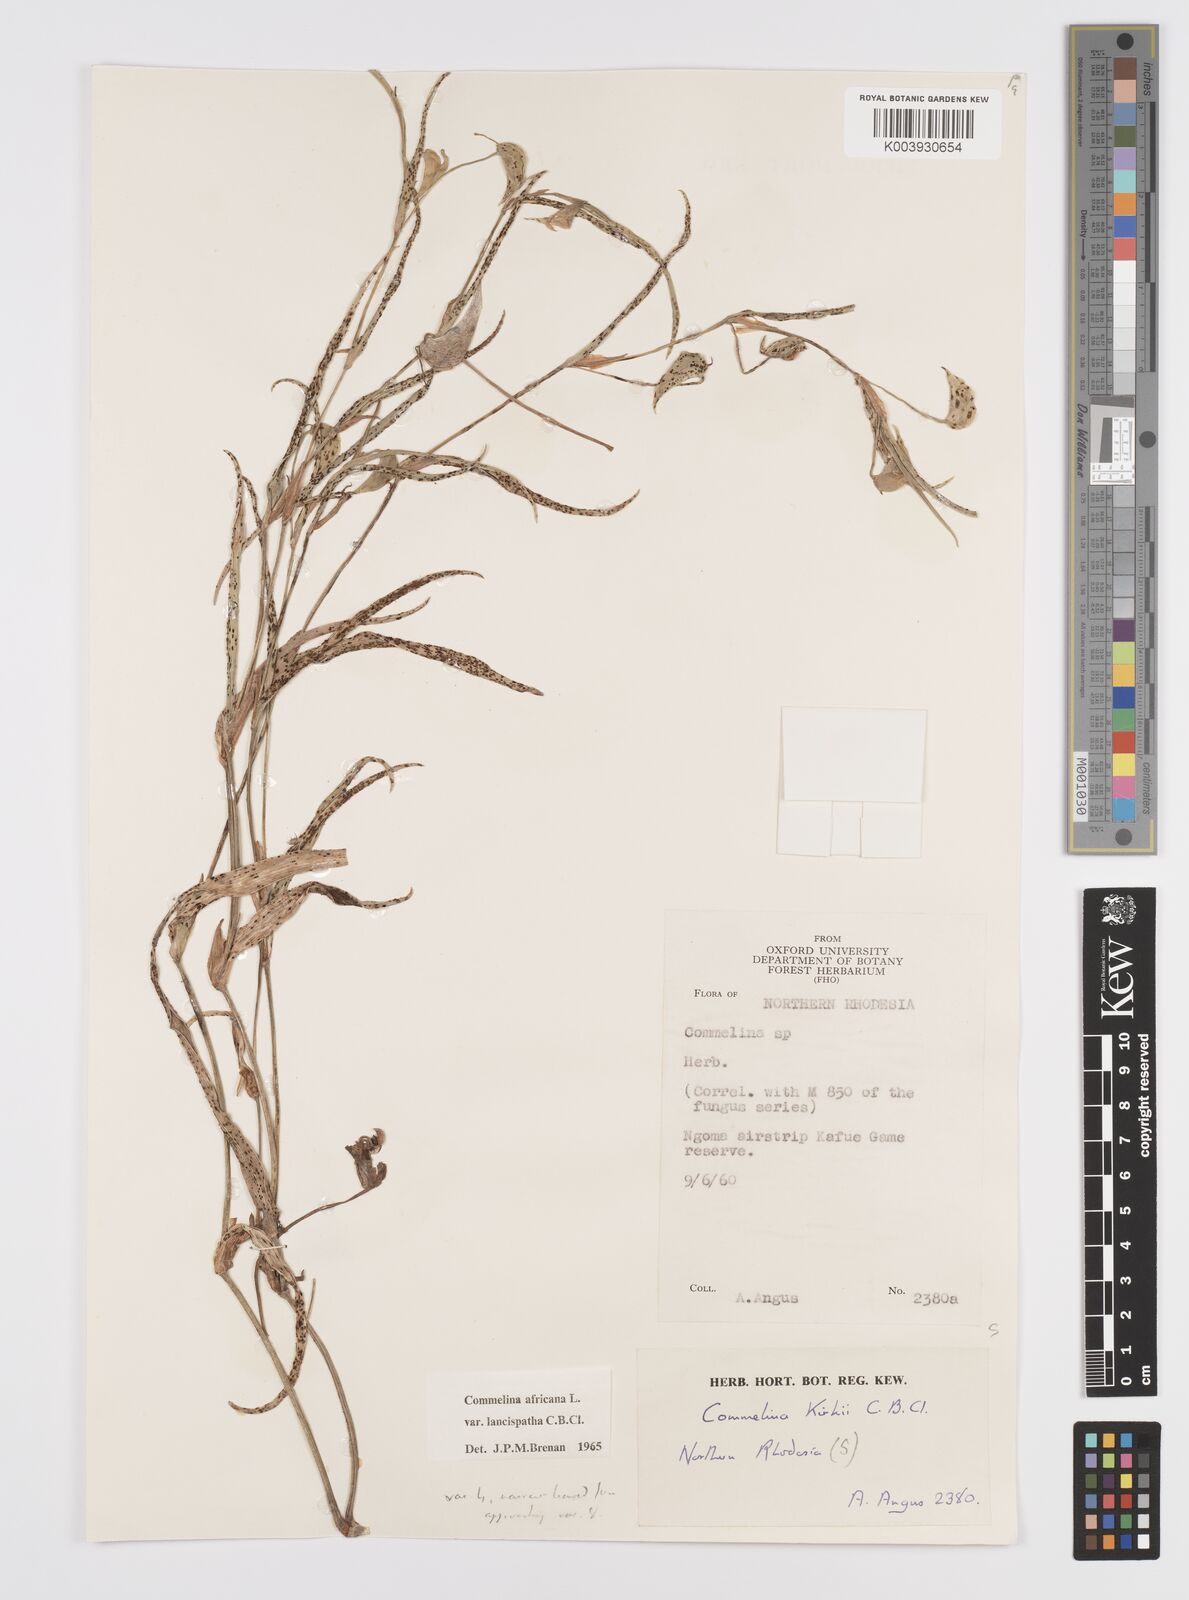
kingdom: Plantae
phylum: Tracheophyta
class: Liliopsida
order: Commelinales
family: Commelinaceae
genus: Commelina
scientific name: Commelina africana
